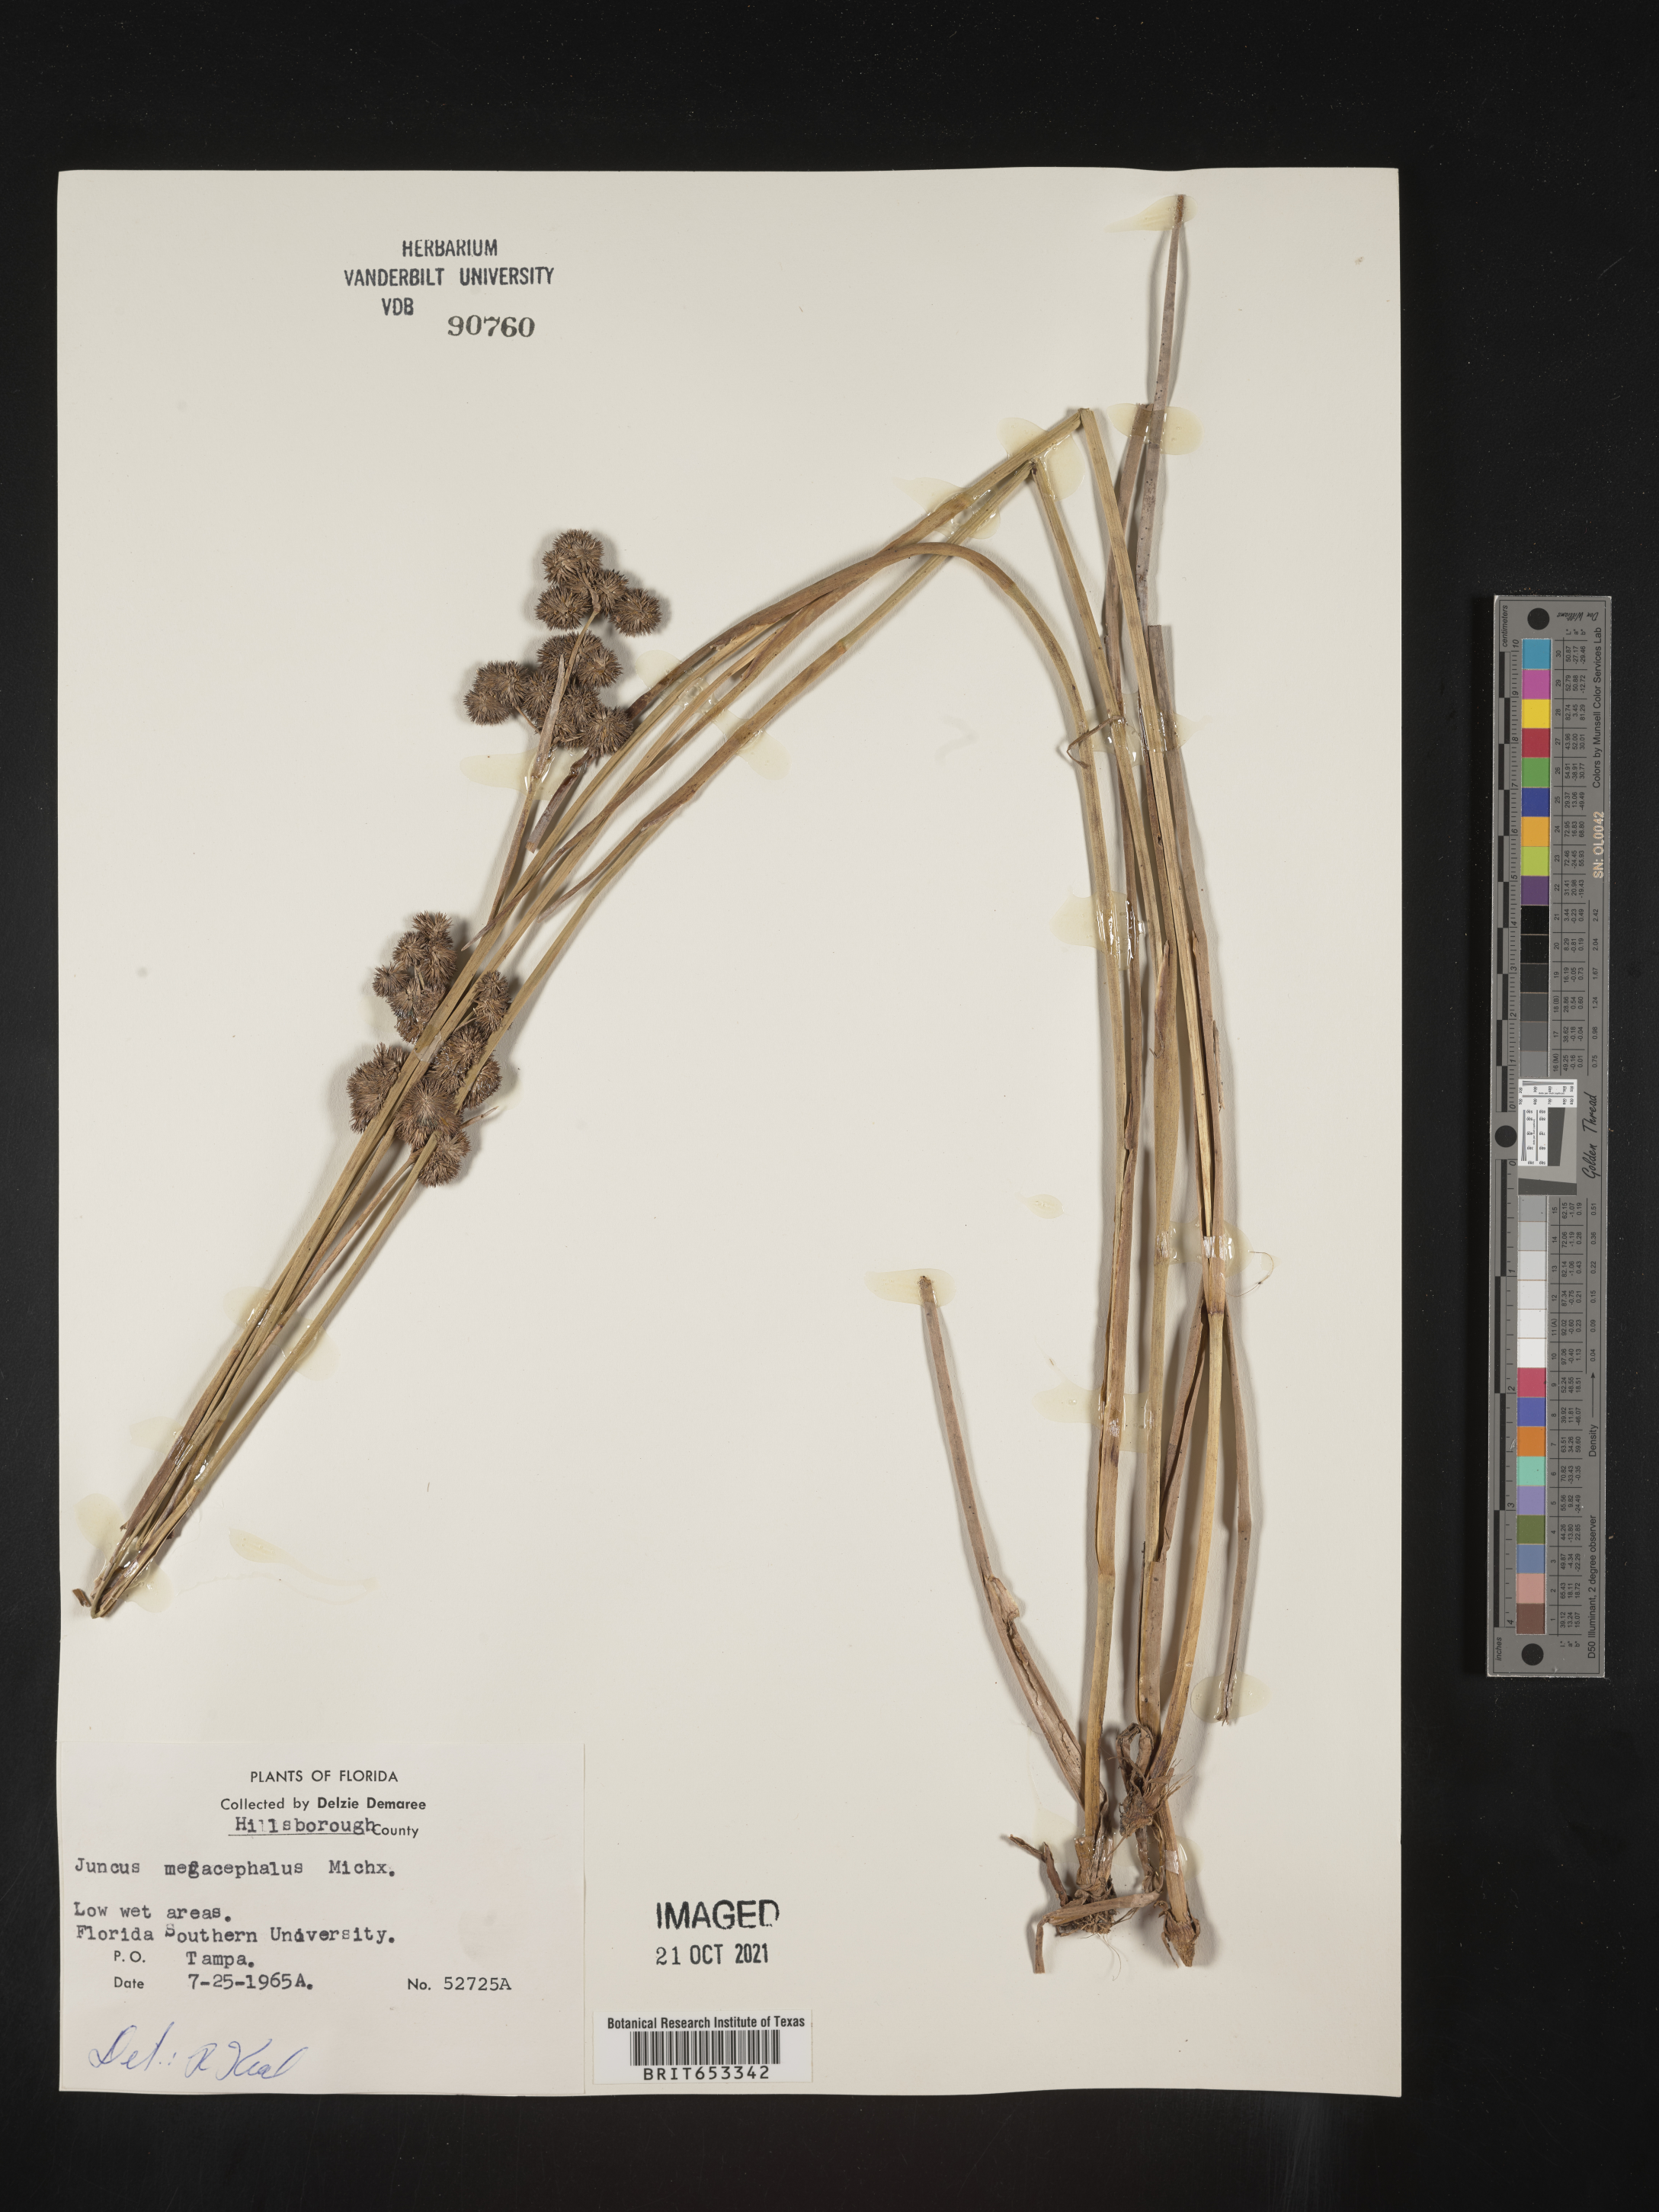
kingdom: Plantae
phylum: Tracheophyta
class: Liliopsida
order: Poales
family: Juncaceae
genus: Juncus
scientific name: Juncus megacephalus
